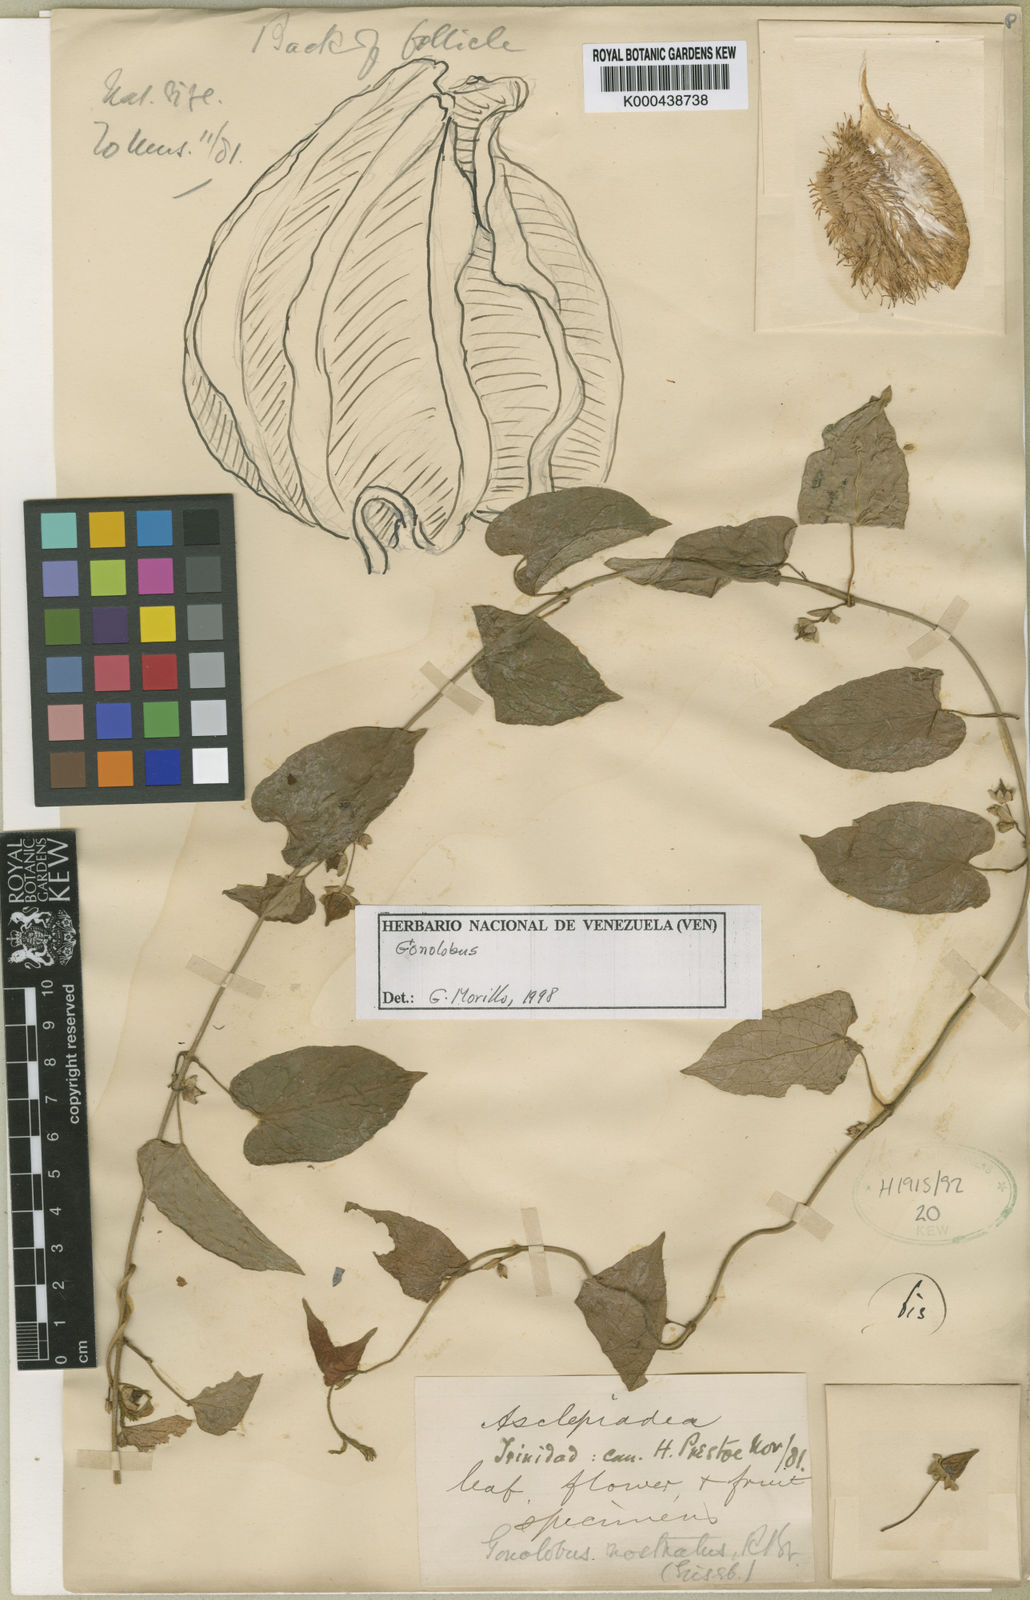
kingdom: Plantae
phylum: Tracheophyta
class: Magnoliopsida
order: Gentianales
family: Apocynaceae
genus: Gonolobus
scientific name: Gonolobus
